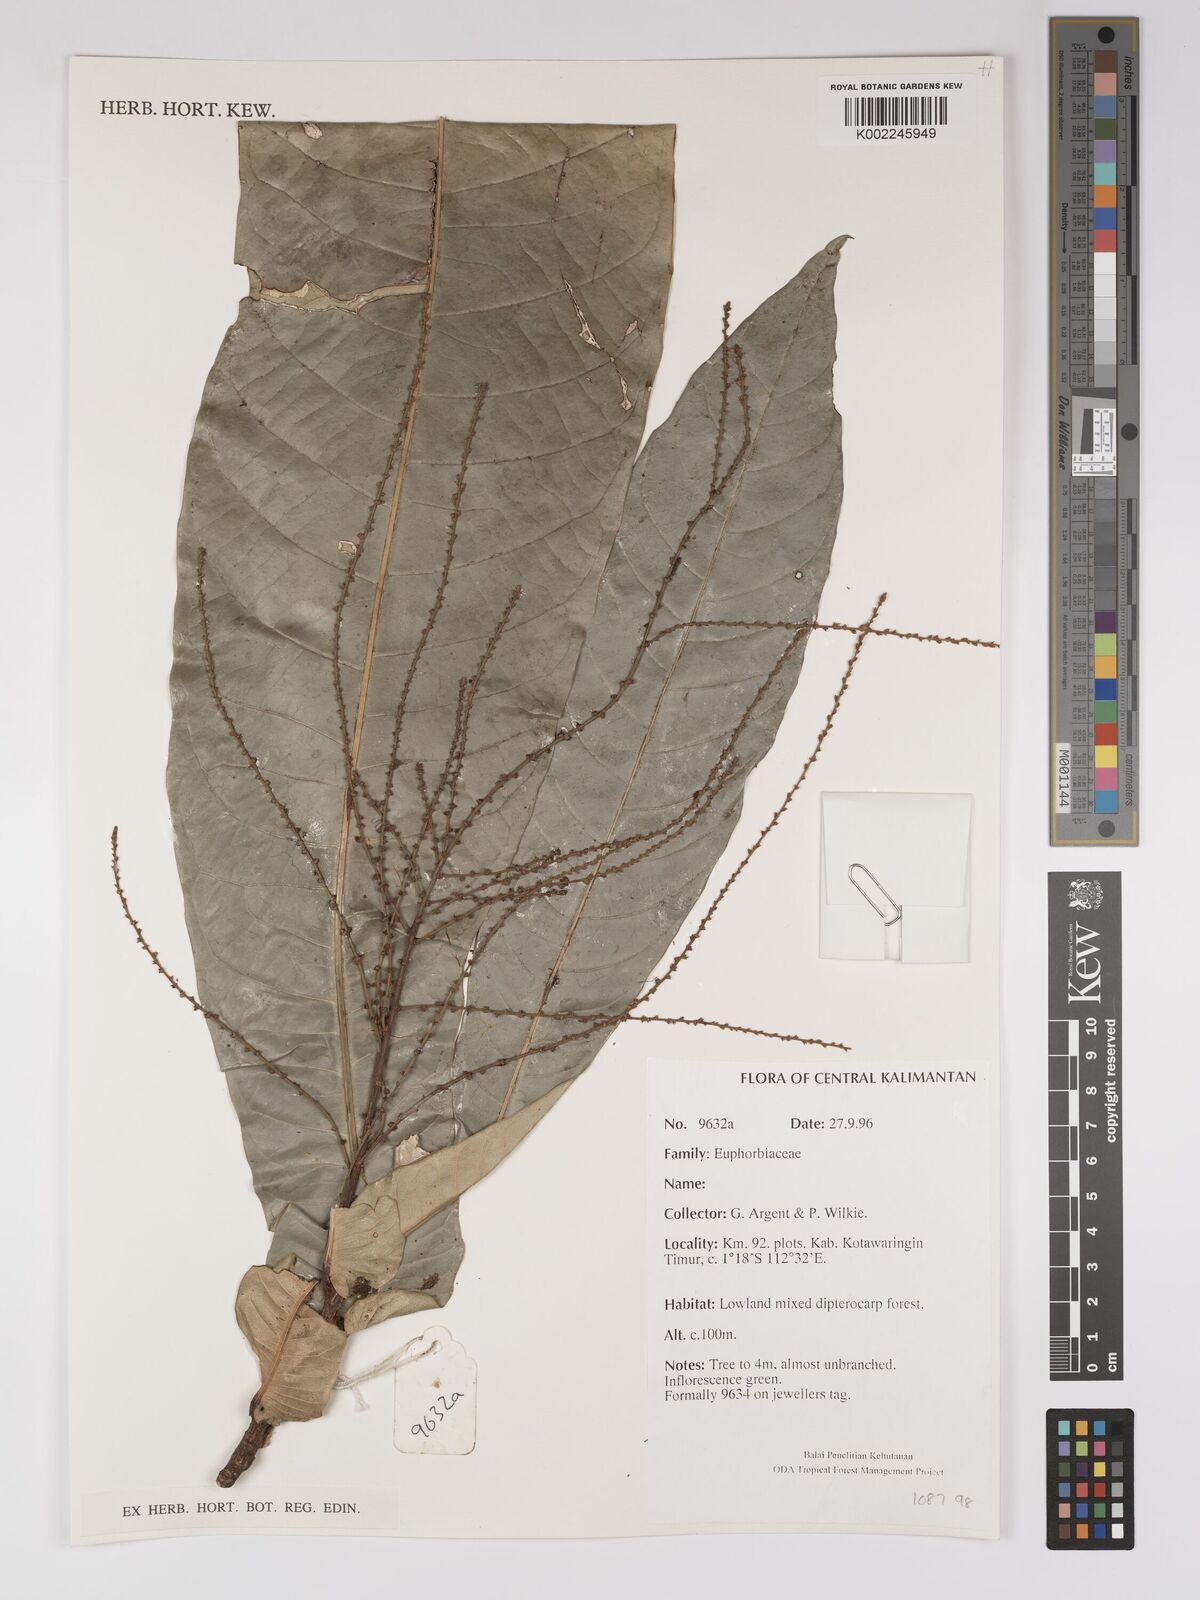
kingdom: Plantae
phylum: Tracheophyta
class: Magnoliopsida
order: Malpighiales
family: Euphorbiaceae
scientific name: Euphorbiaceae
